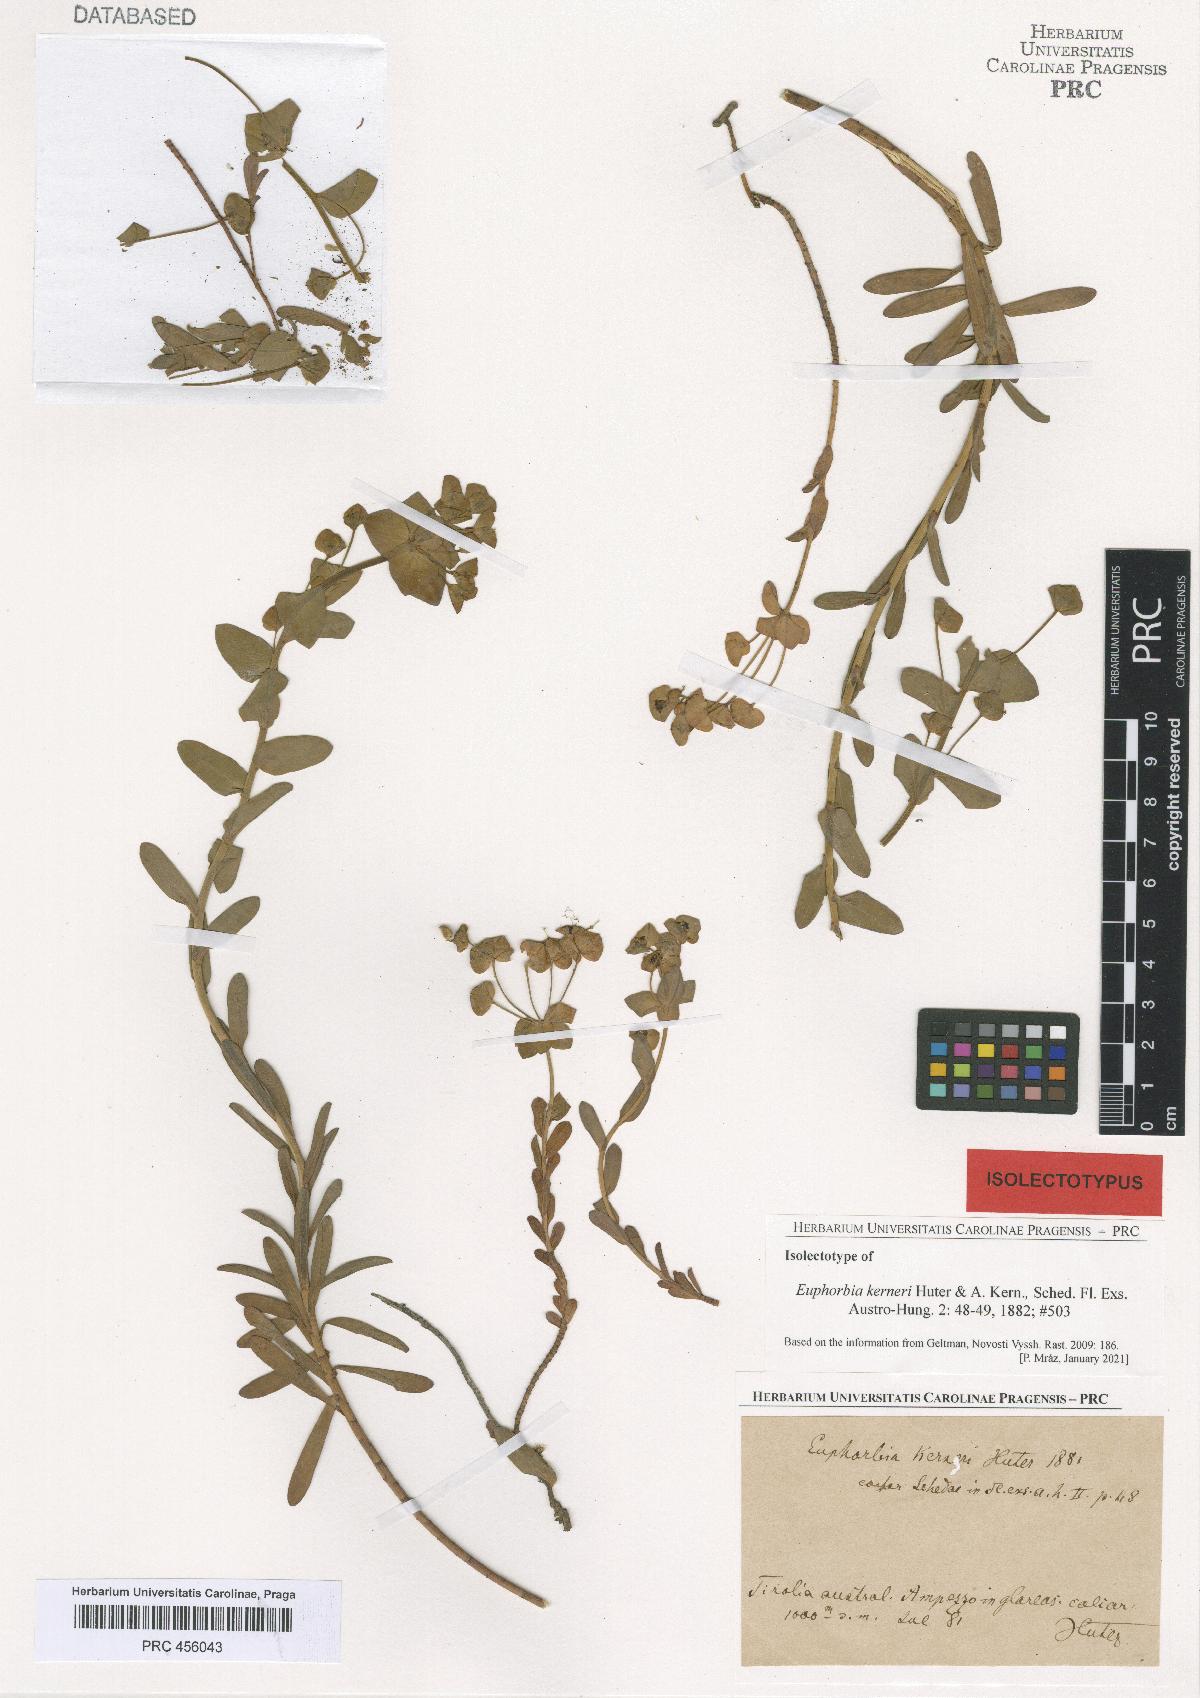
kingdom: Plantae
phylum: Tracheophyta
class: Magnoliopsida
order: Malpighiales
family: Euphorbiaceae
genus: Euphorbia
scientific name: Euphorbia kerneri
